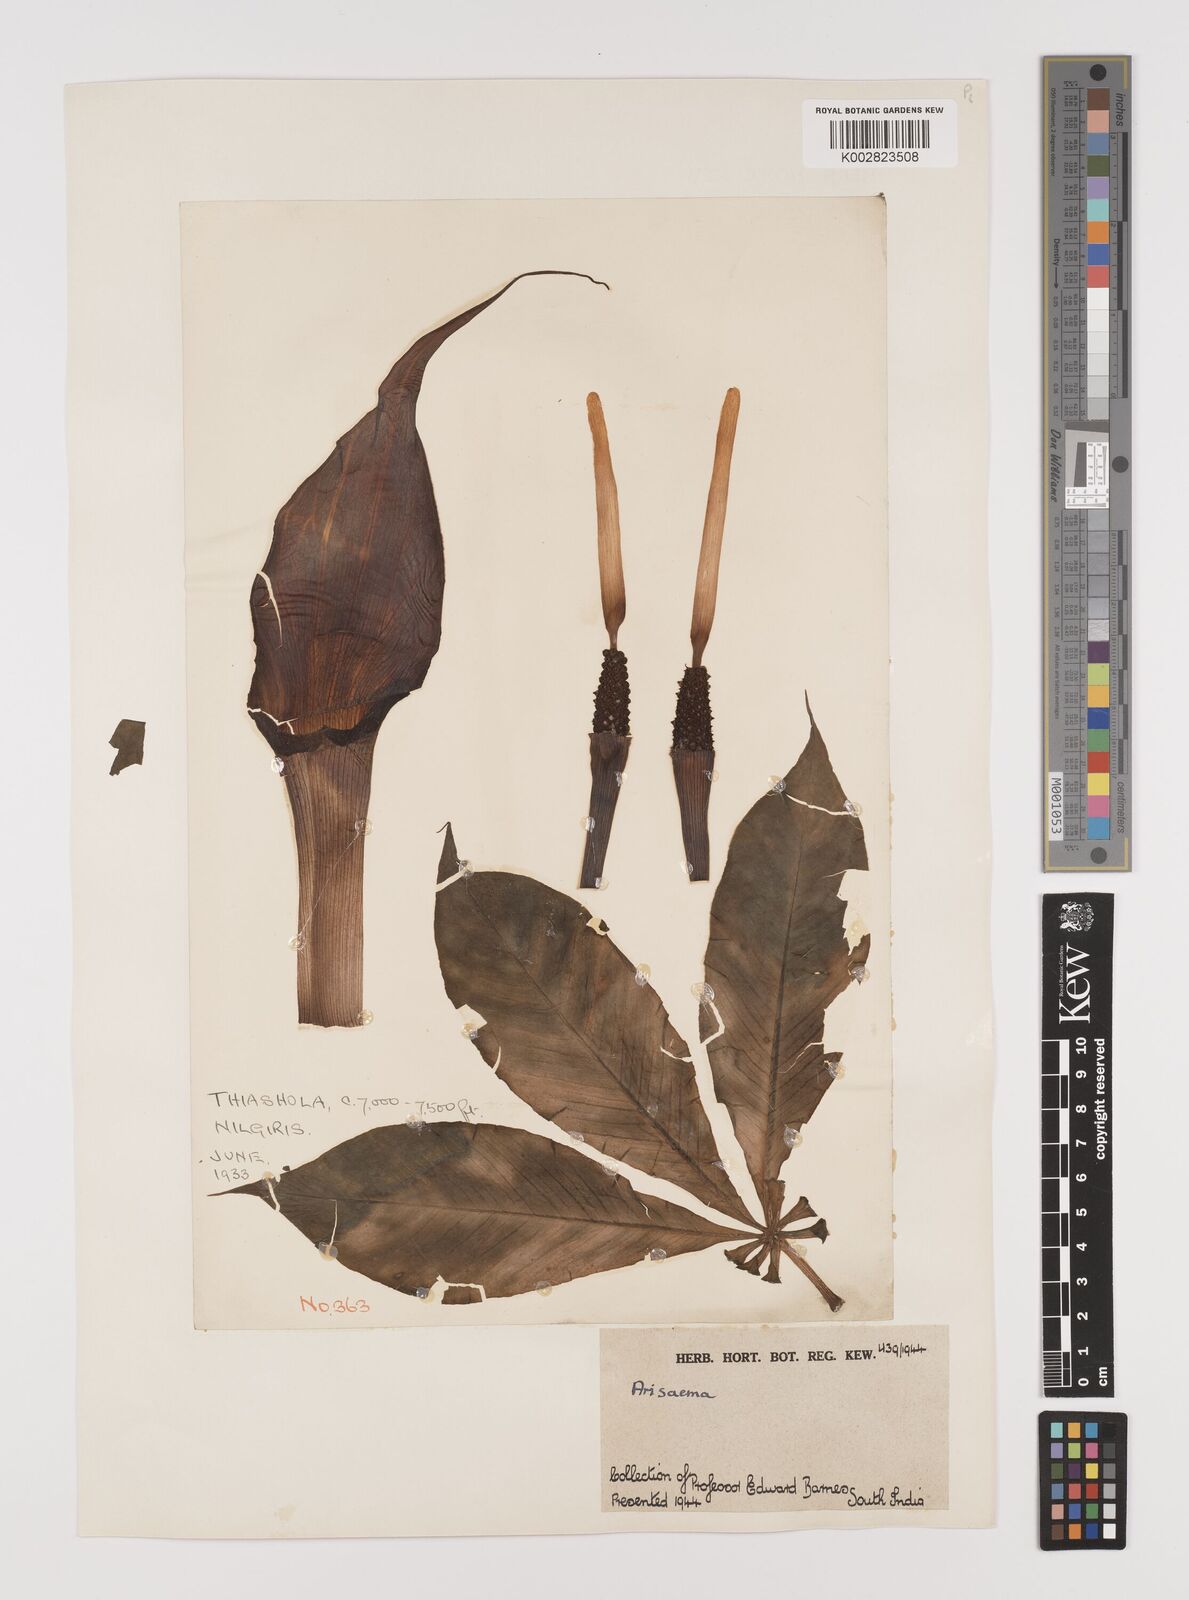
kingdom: Plantae
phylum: Tracheophyta
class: Liliopsida
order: Alismatales
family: Araceae
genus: Arisaema
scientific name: Arisaema
